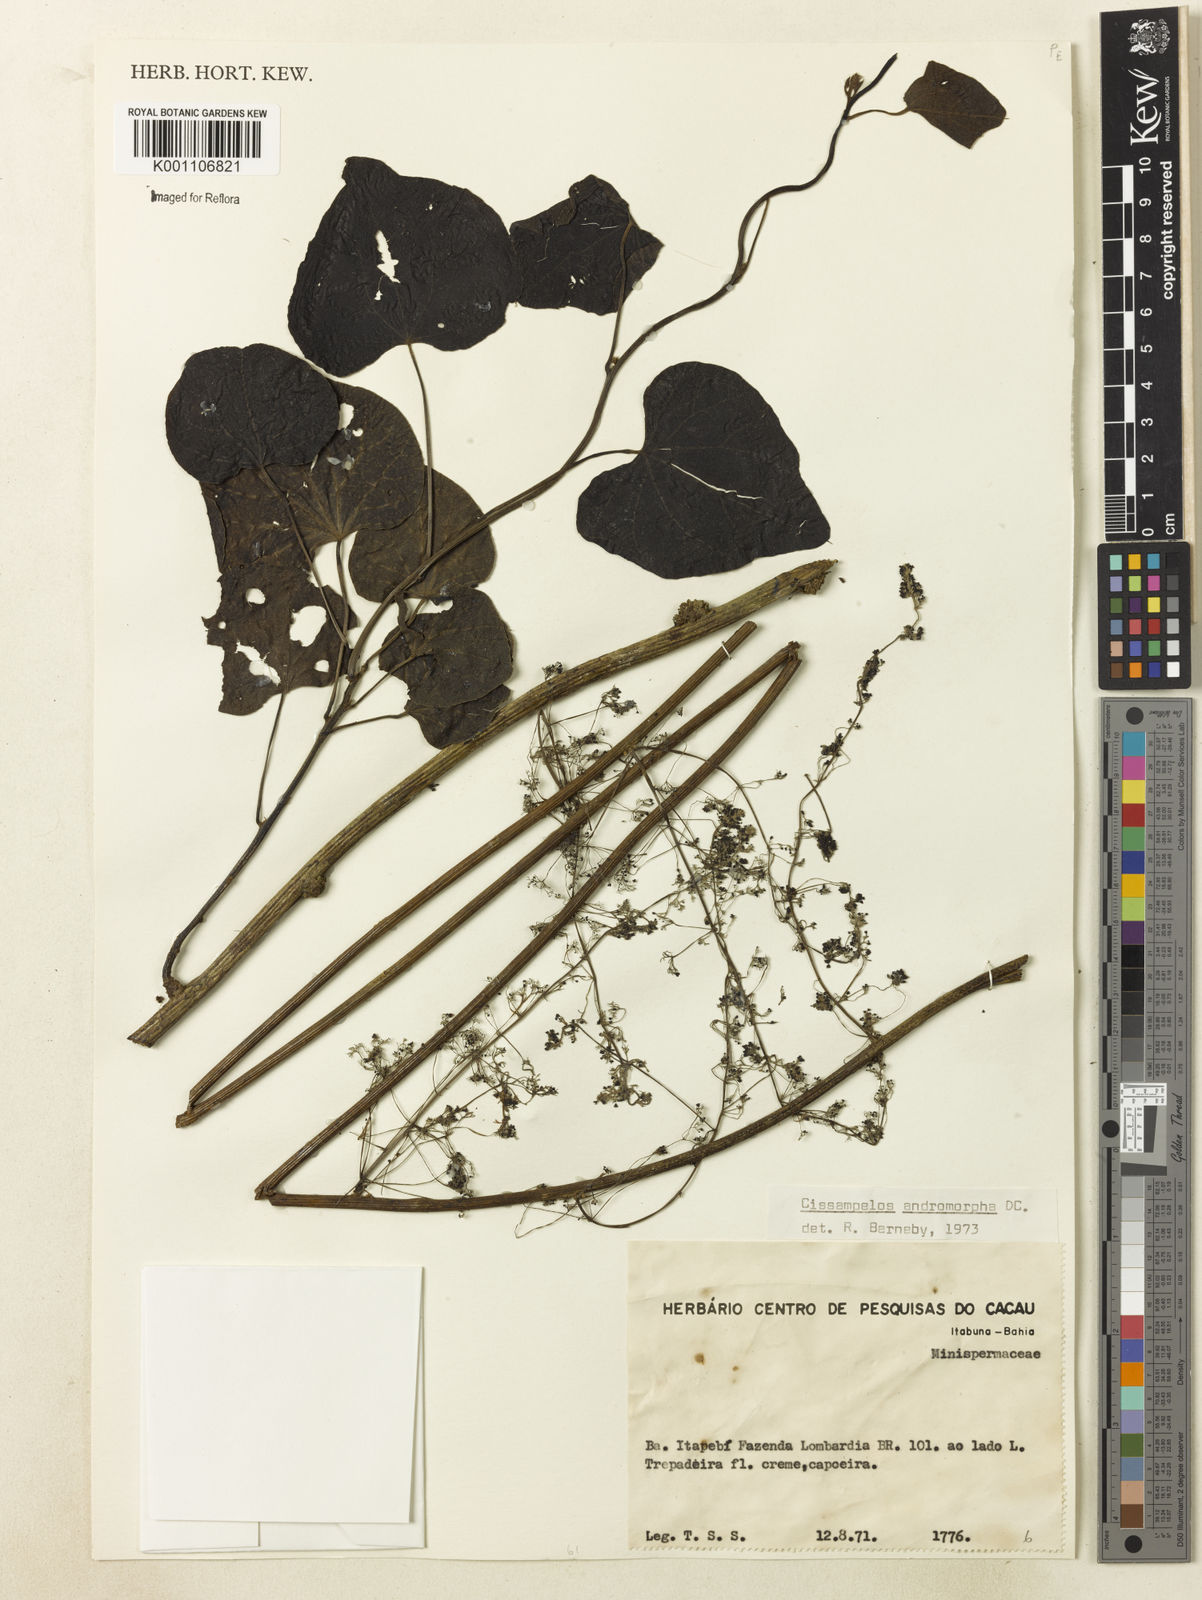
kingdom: Plantae
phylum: Tracheophyta
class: Magnoliopsida
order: Ranunculales
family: Menispermaceae
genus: Cissampelos
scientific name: Cissampelos andromorpha
